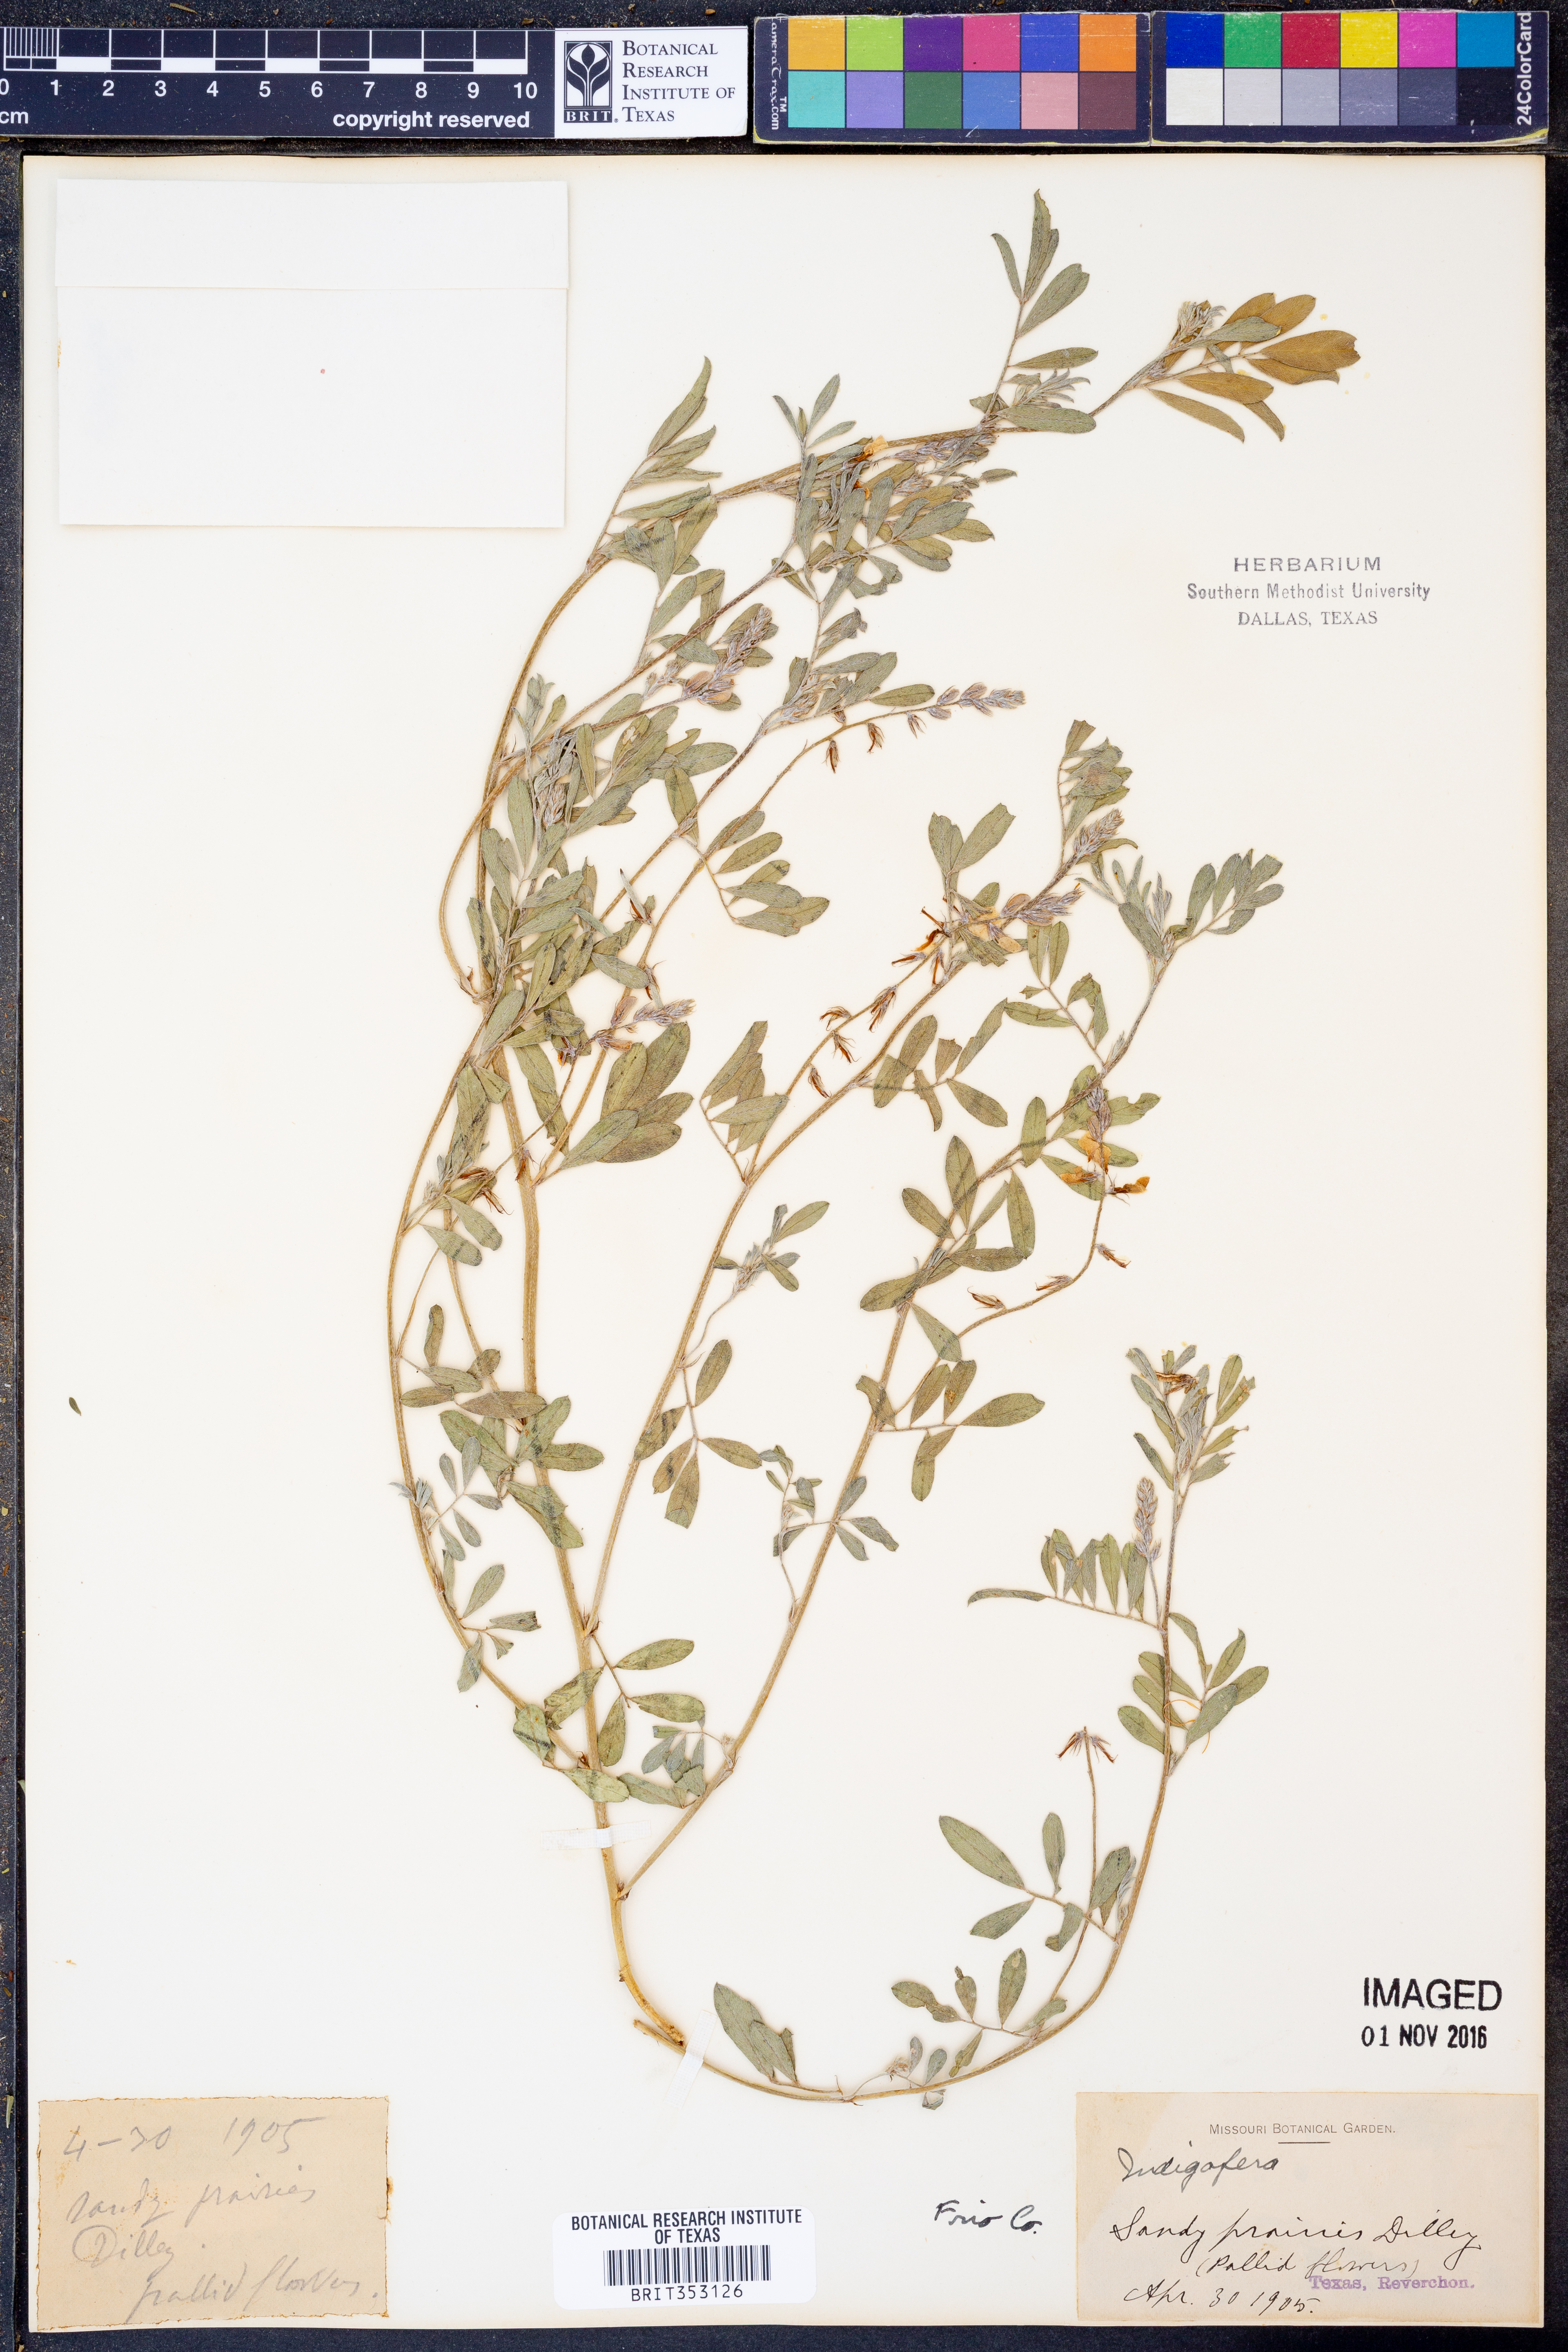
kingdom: Plantae
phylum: Tracheophyta
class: Magnoliopsida
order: Fabales
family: Fabaceae
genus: Indigofera
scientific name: Indigofera
